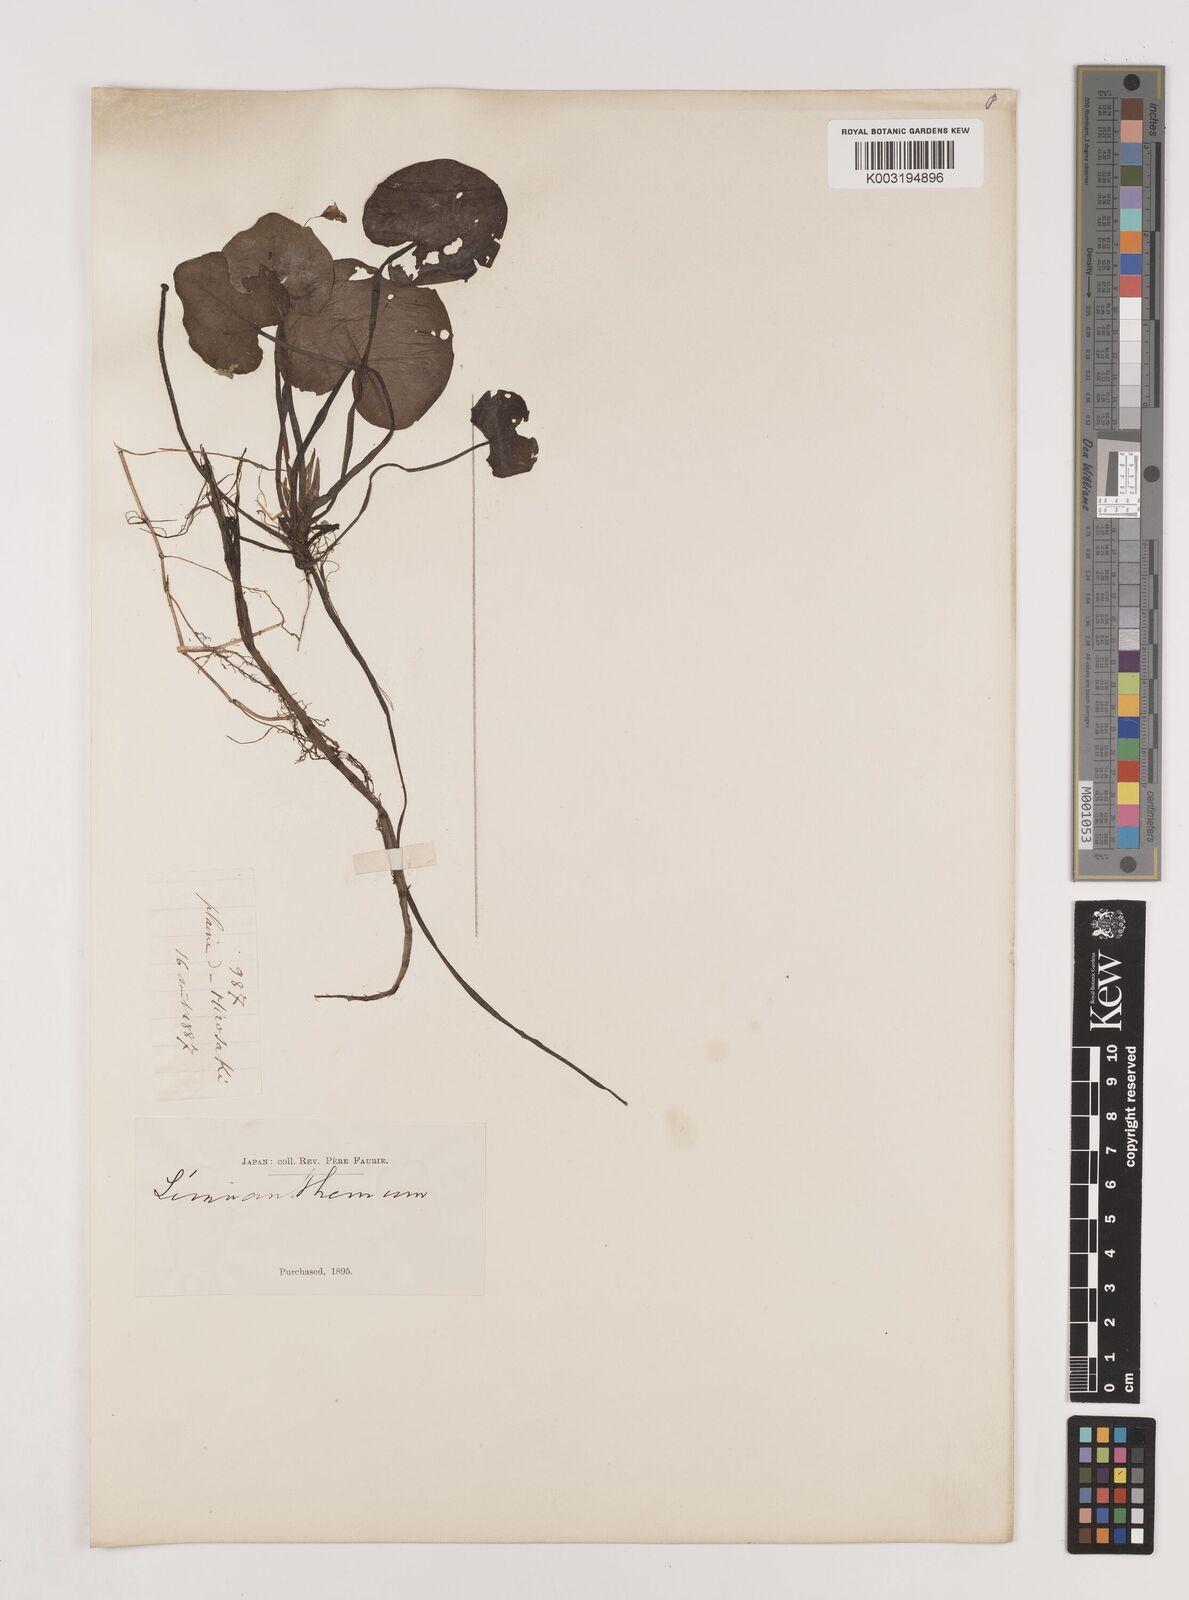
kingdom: Plantae
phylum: Tracheophyta
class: Liliopsida
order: Alismatales
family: Hydrocharitaceae
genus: Hydrocharis
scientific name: Hydrocharis dubia
